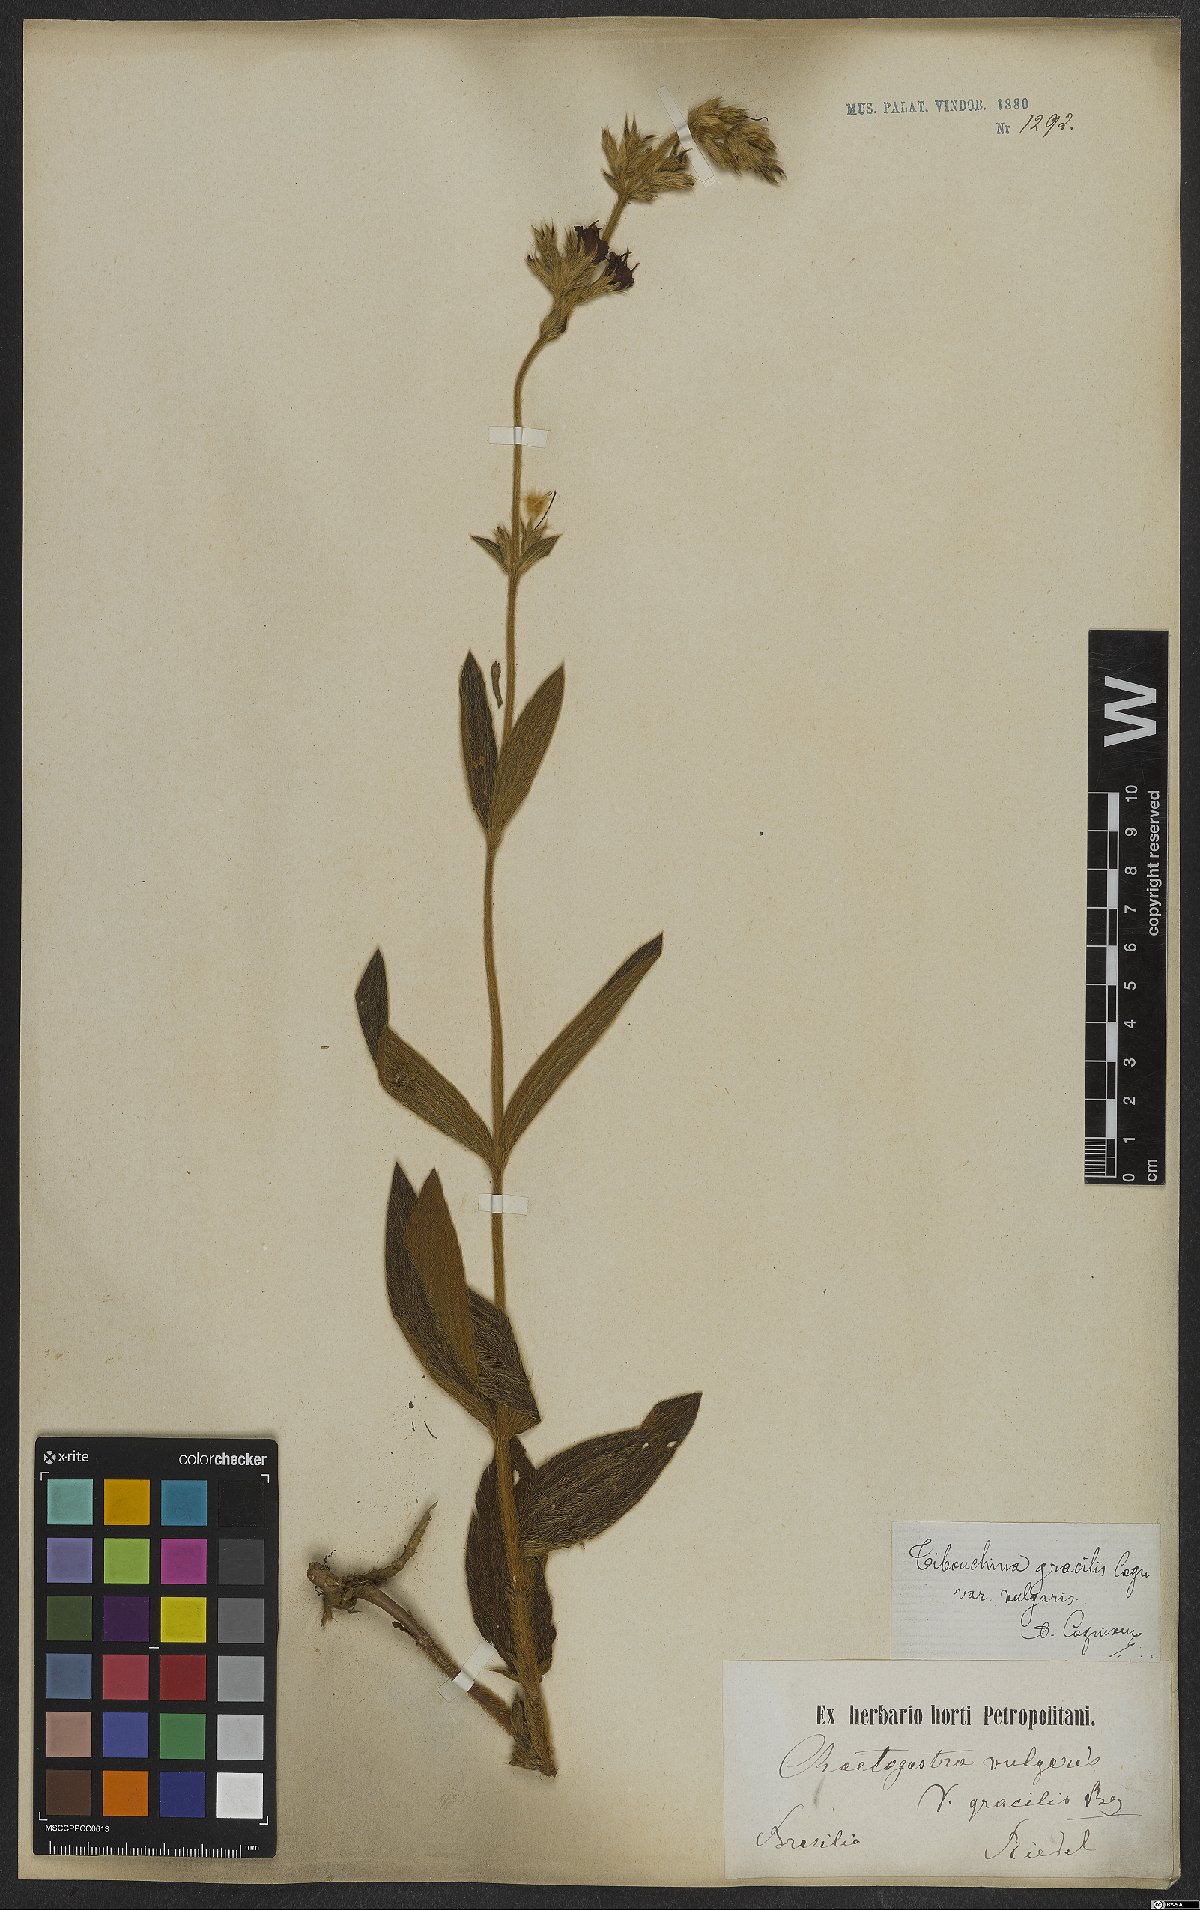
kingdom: Plantae
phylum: Tracheophyta
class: Magnoliopsida
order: Myrtales
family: Melastomataceae
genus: Chaetogastra
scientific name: Chaetogastra gracilis
